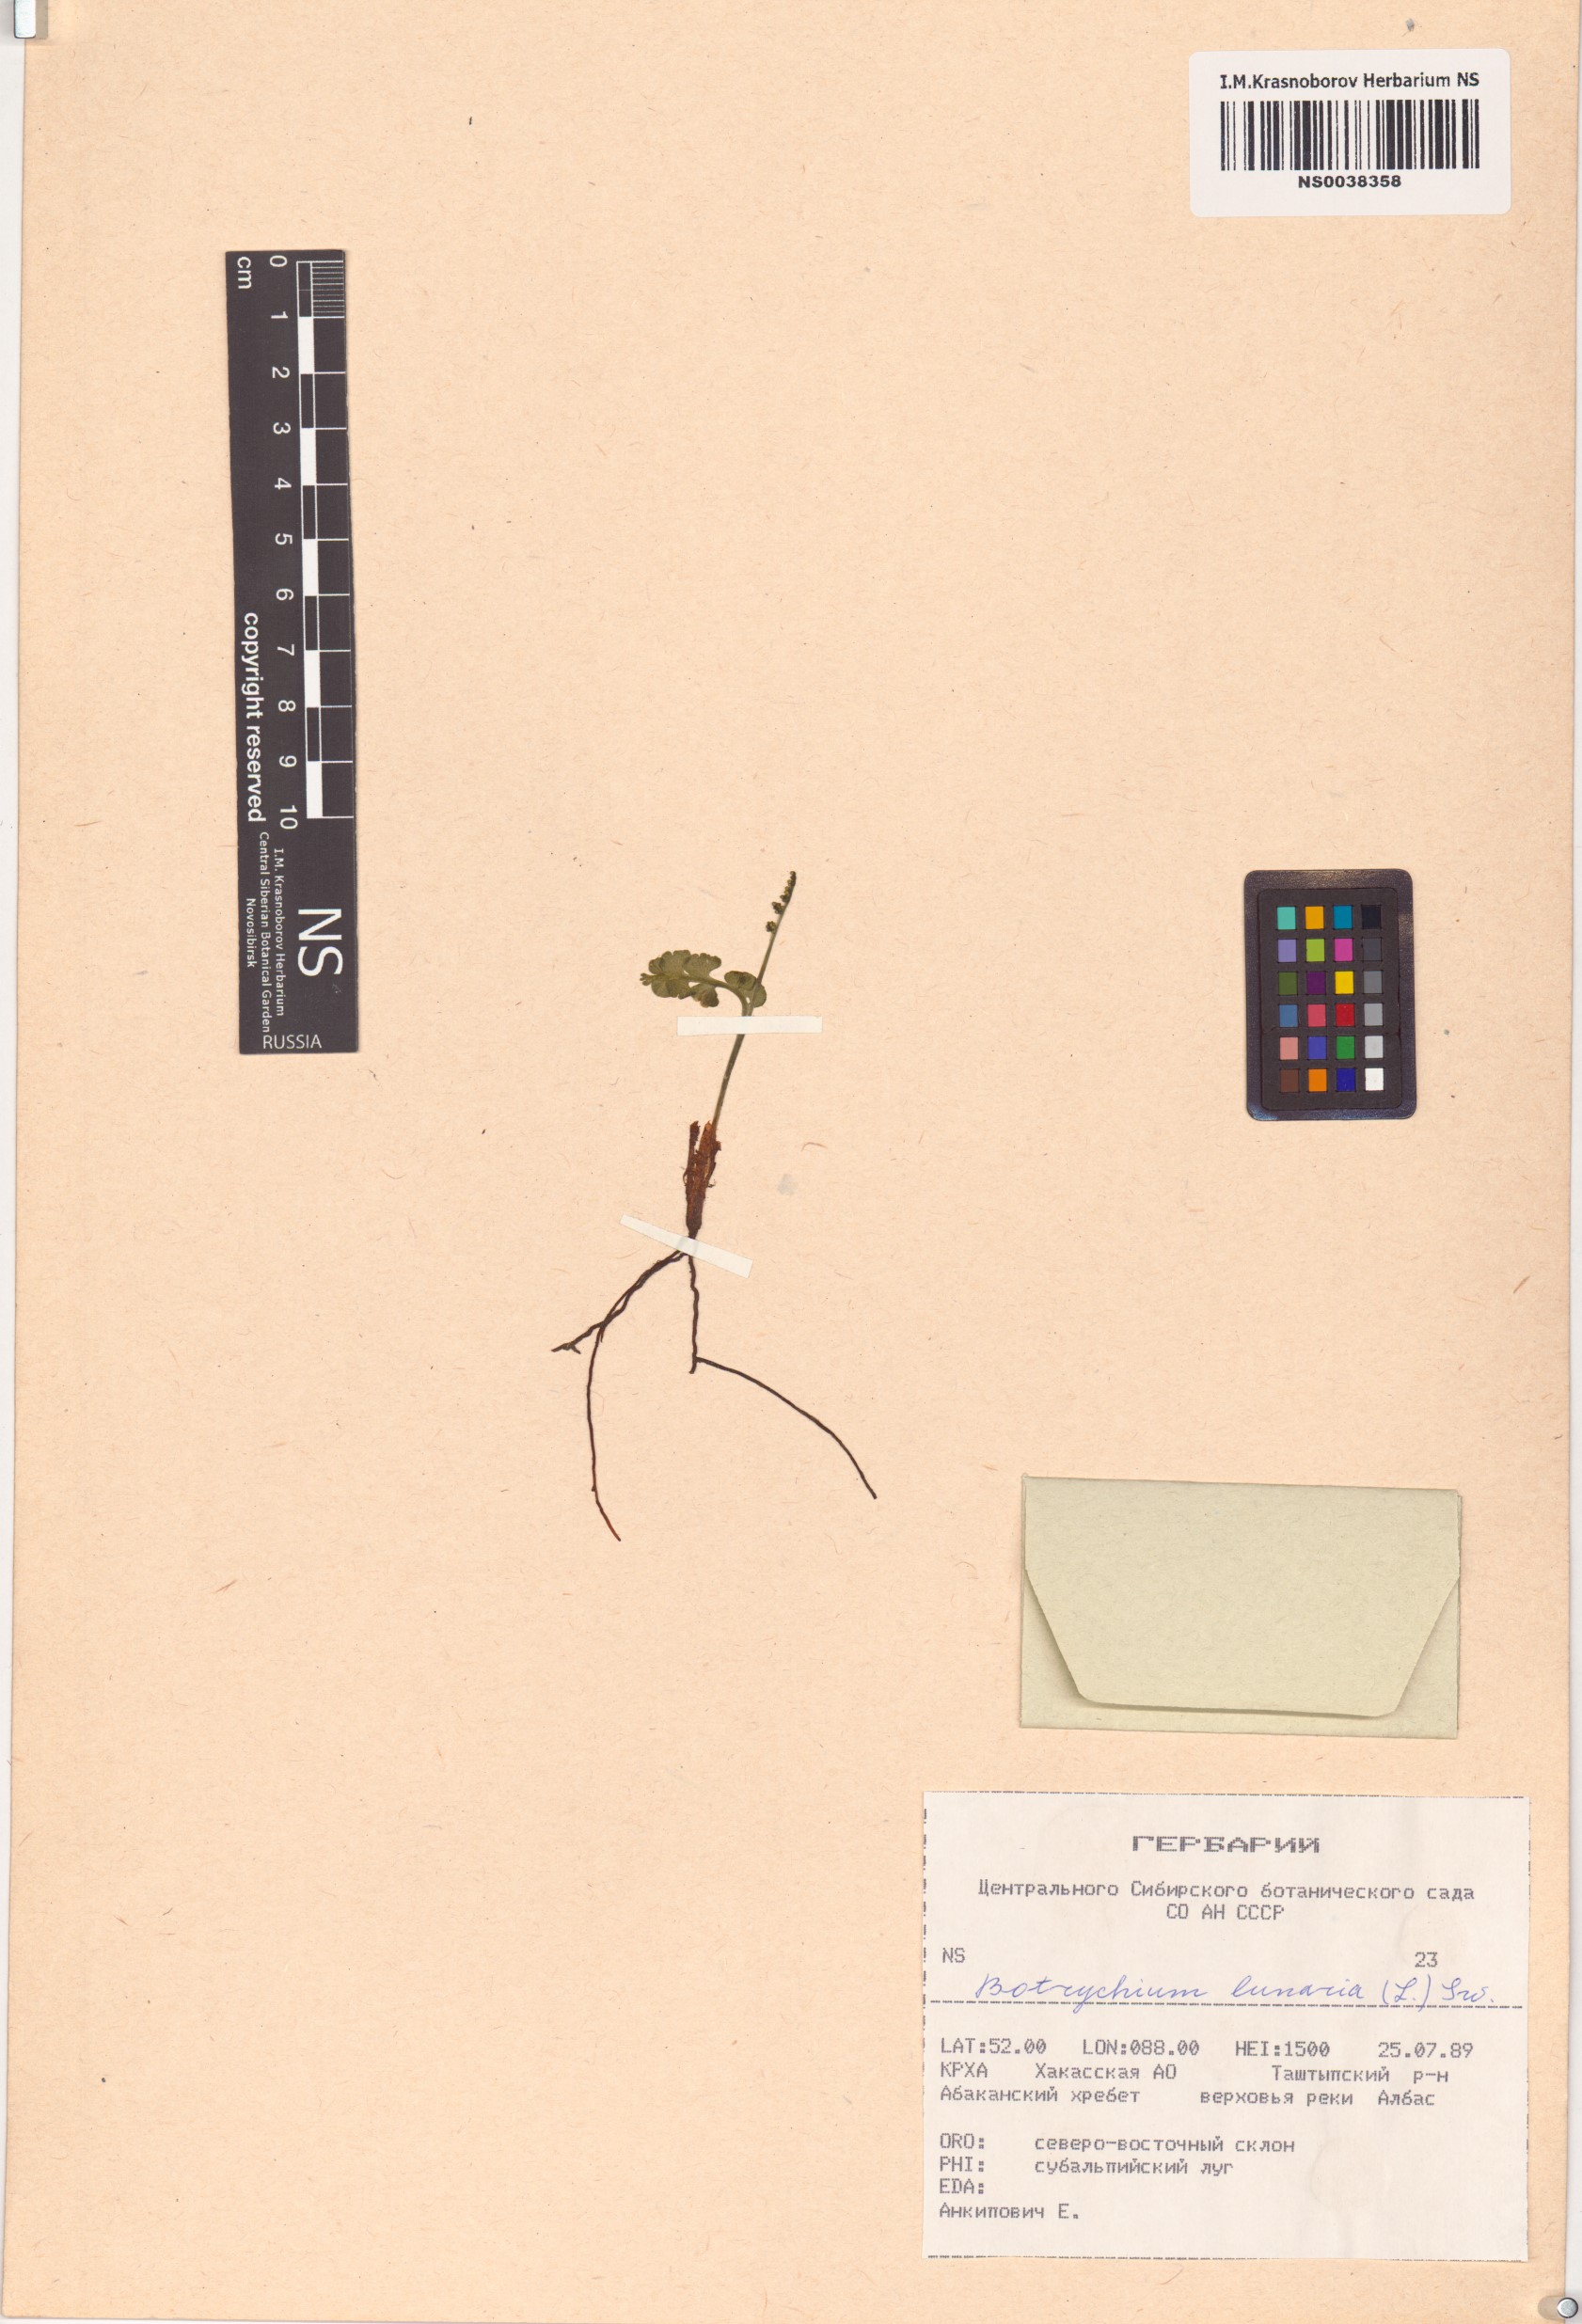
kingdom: Plantae
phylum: Tracheophyta
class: Polypodiopsida
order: Ophioglossales
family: Ophioglossaceae
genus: Botrychium
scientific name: Botrychium lunaria
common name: Moonwort
